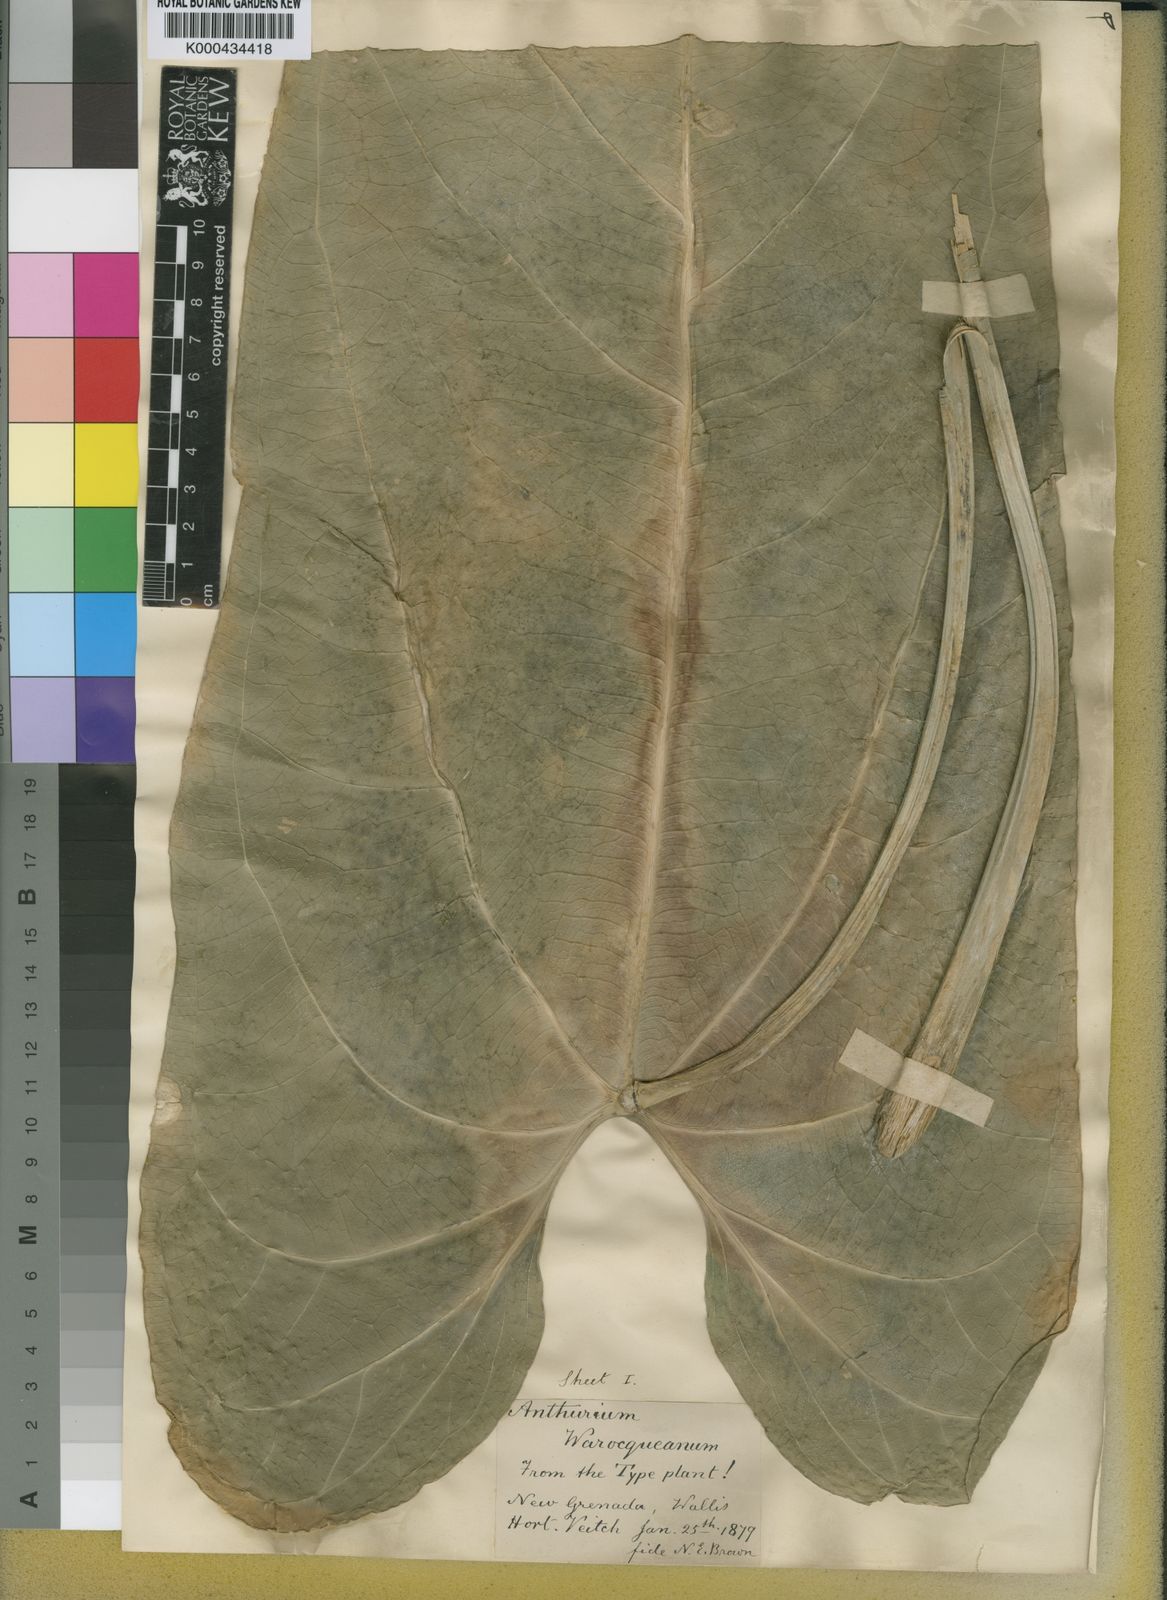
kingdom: Plantae
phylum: Tracheophyta
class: Liliopsida
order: Alismatales
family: Araceae
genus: Anthurium
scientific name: Anthurium warocqueanum
